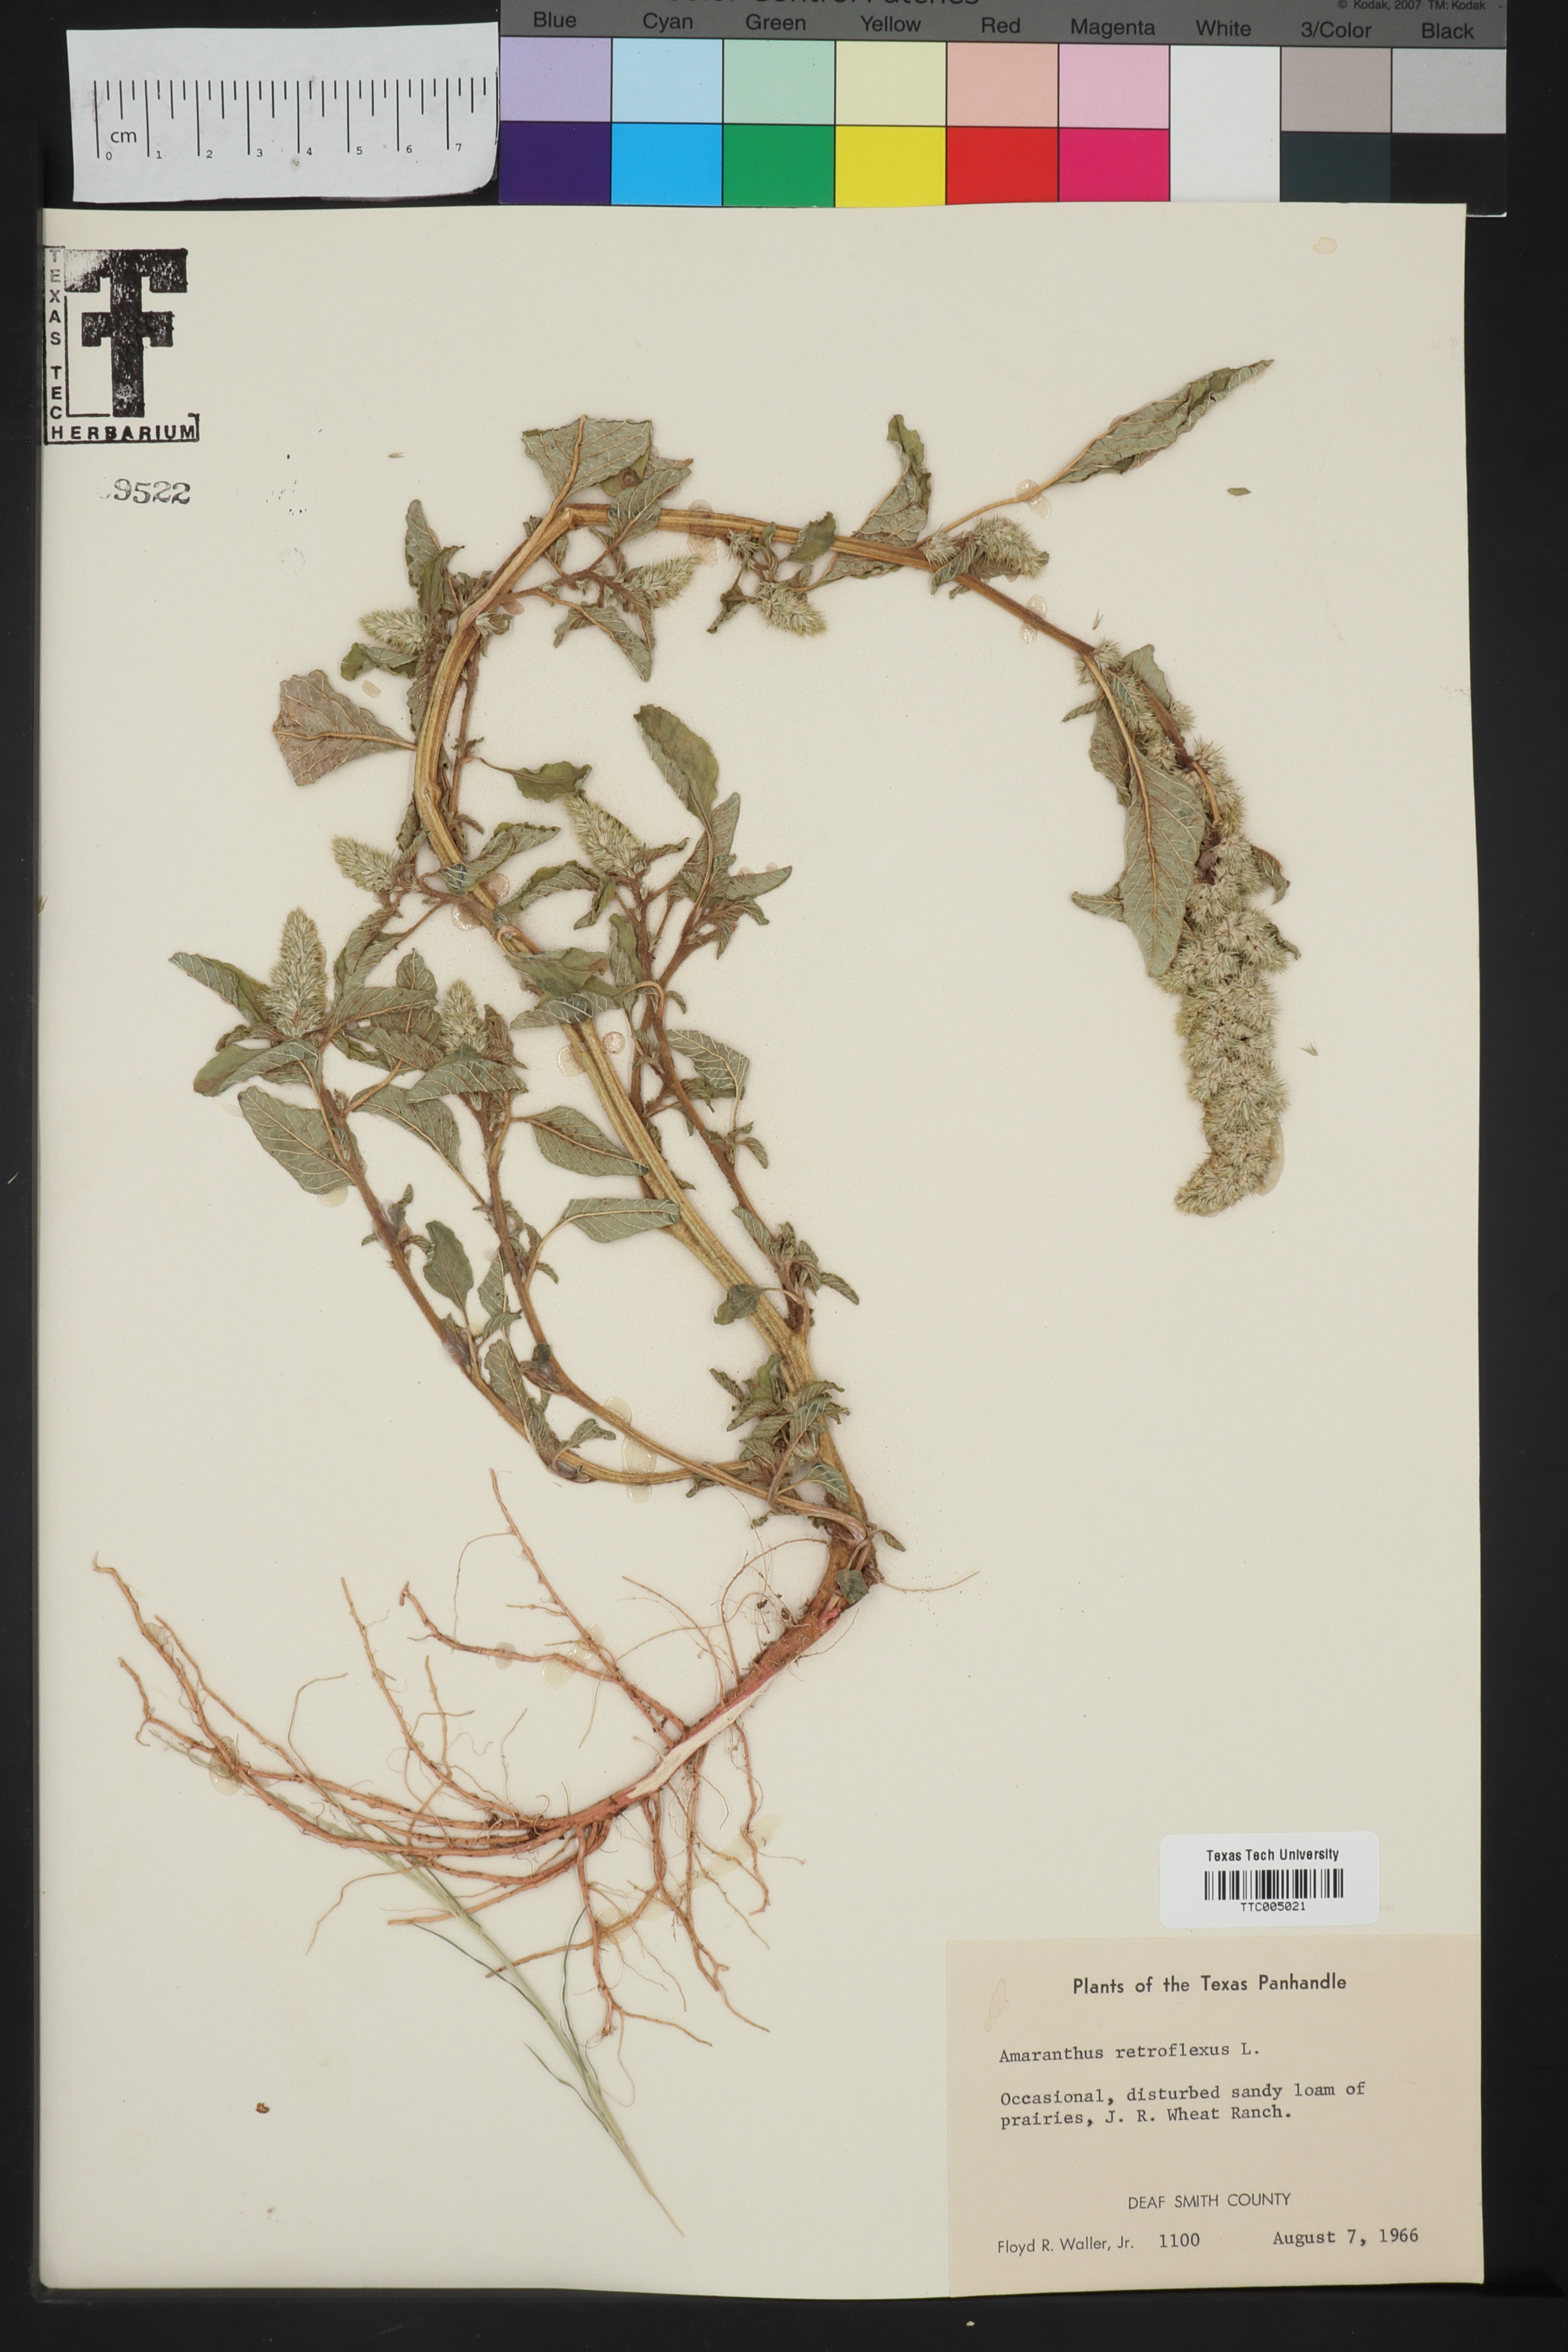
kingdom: Plantae
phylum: Tracheophyta
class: Magnoliopsida
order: Caryophyllales
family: Amaranthaceae
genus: Amaranthus
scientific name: Amaranthus retroflexus
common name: Redroot amaranth
